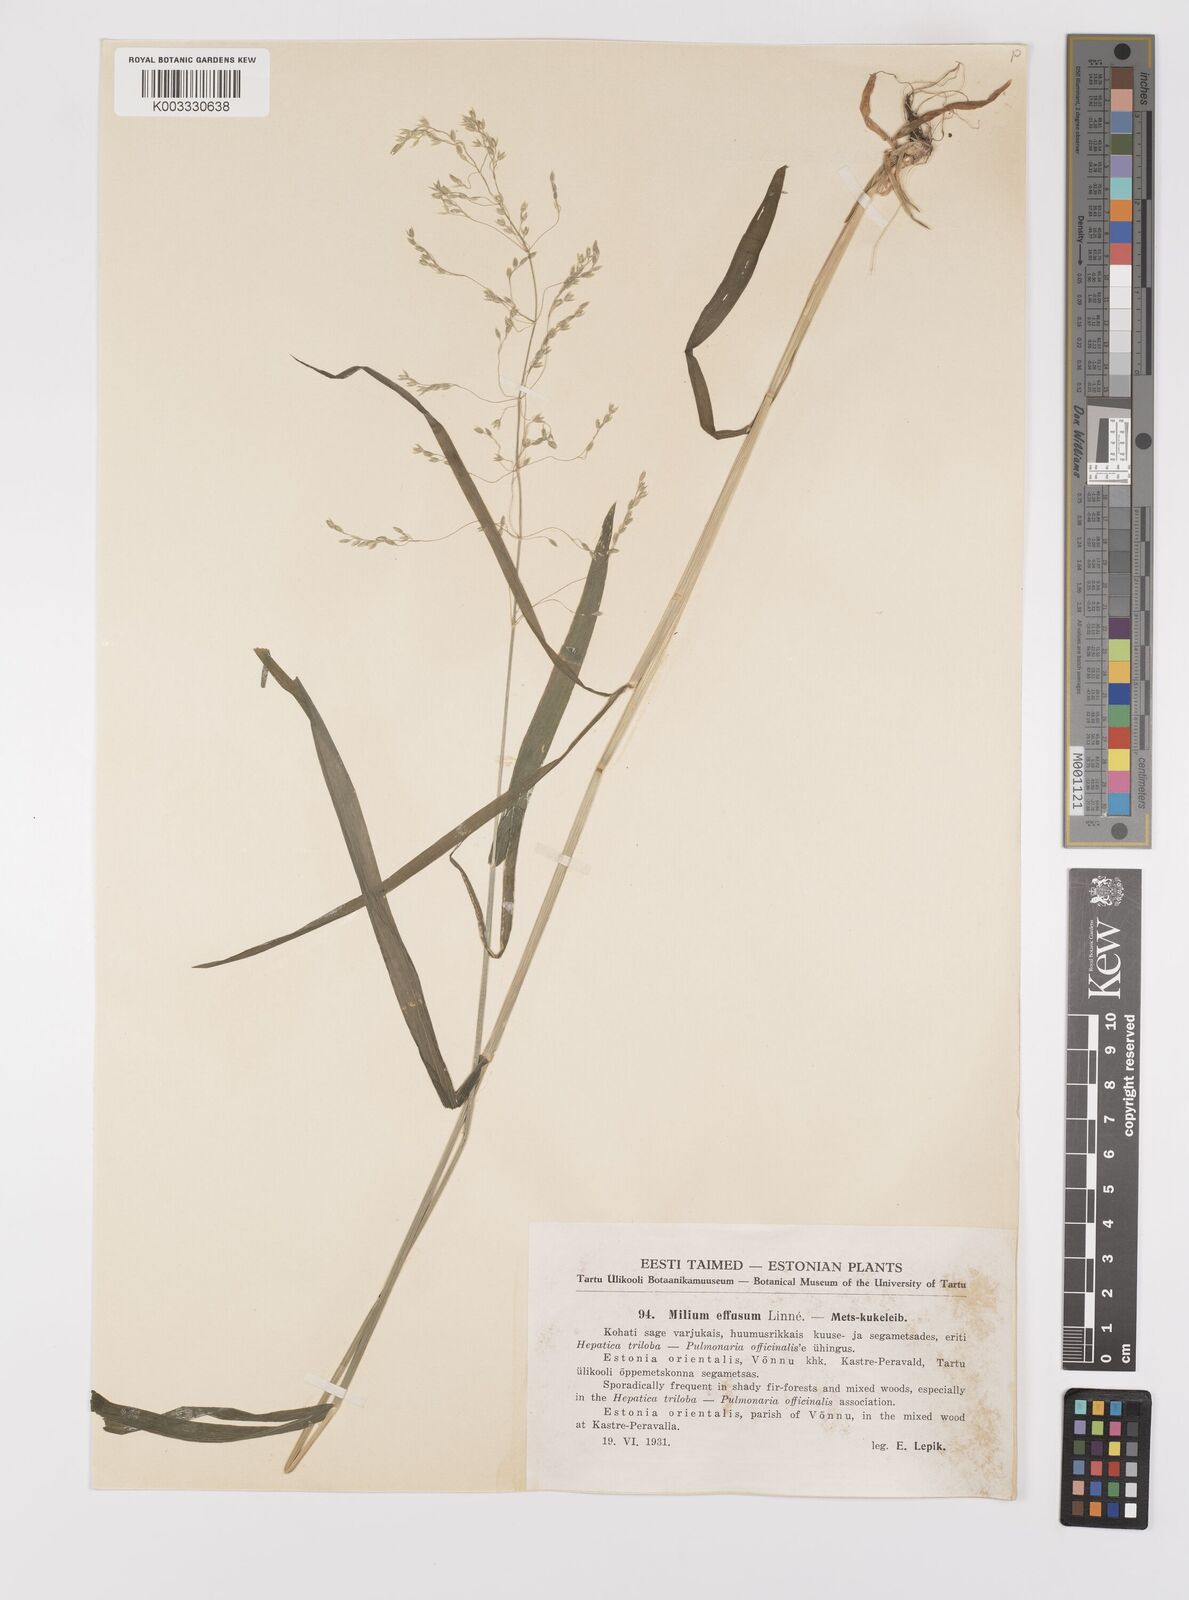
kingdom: Plantae
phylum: Tracheophyta
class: Liliopsida
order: Poales
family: Poaceae
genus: Milium
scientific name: Milium effusum
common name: Wood millet
